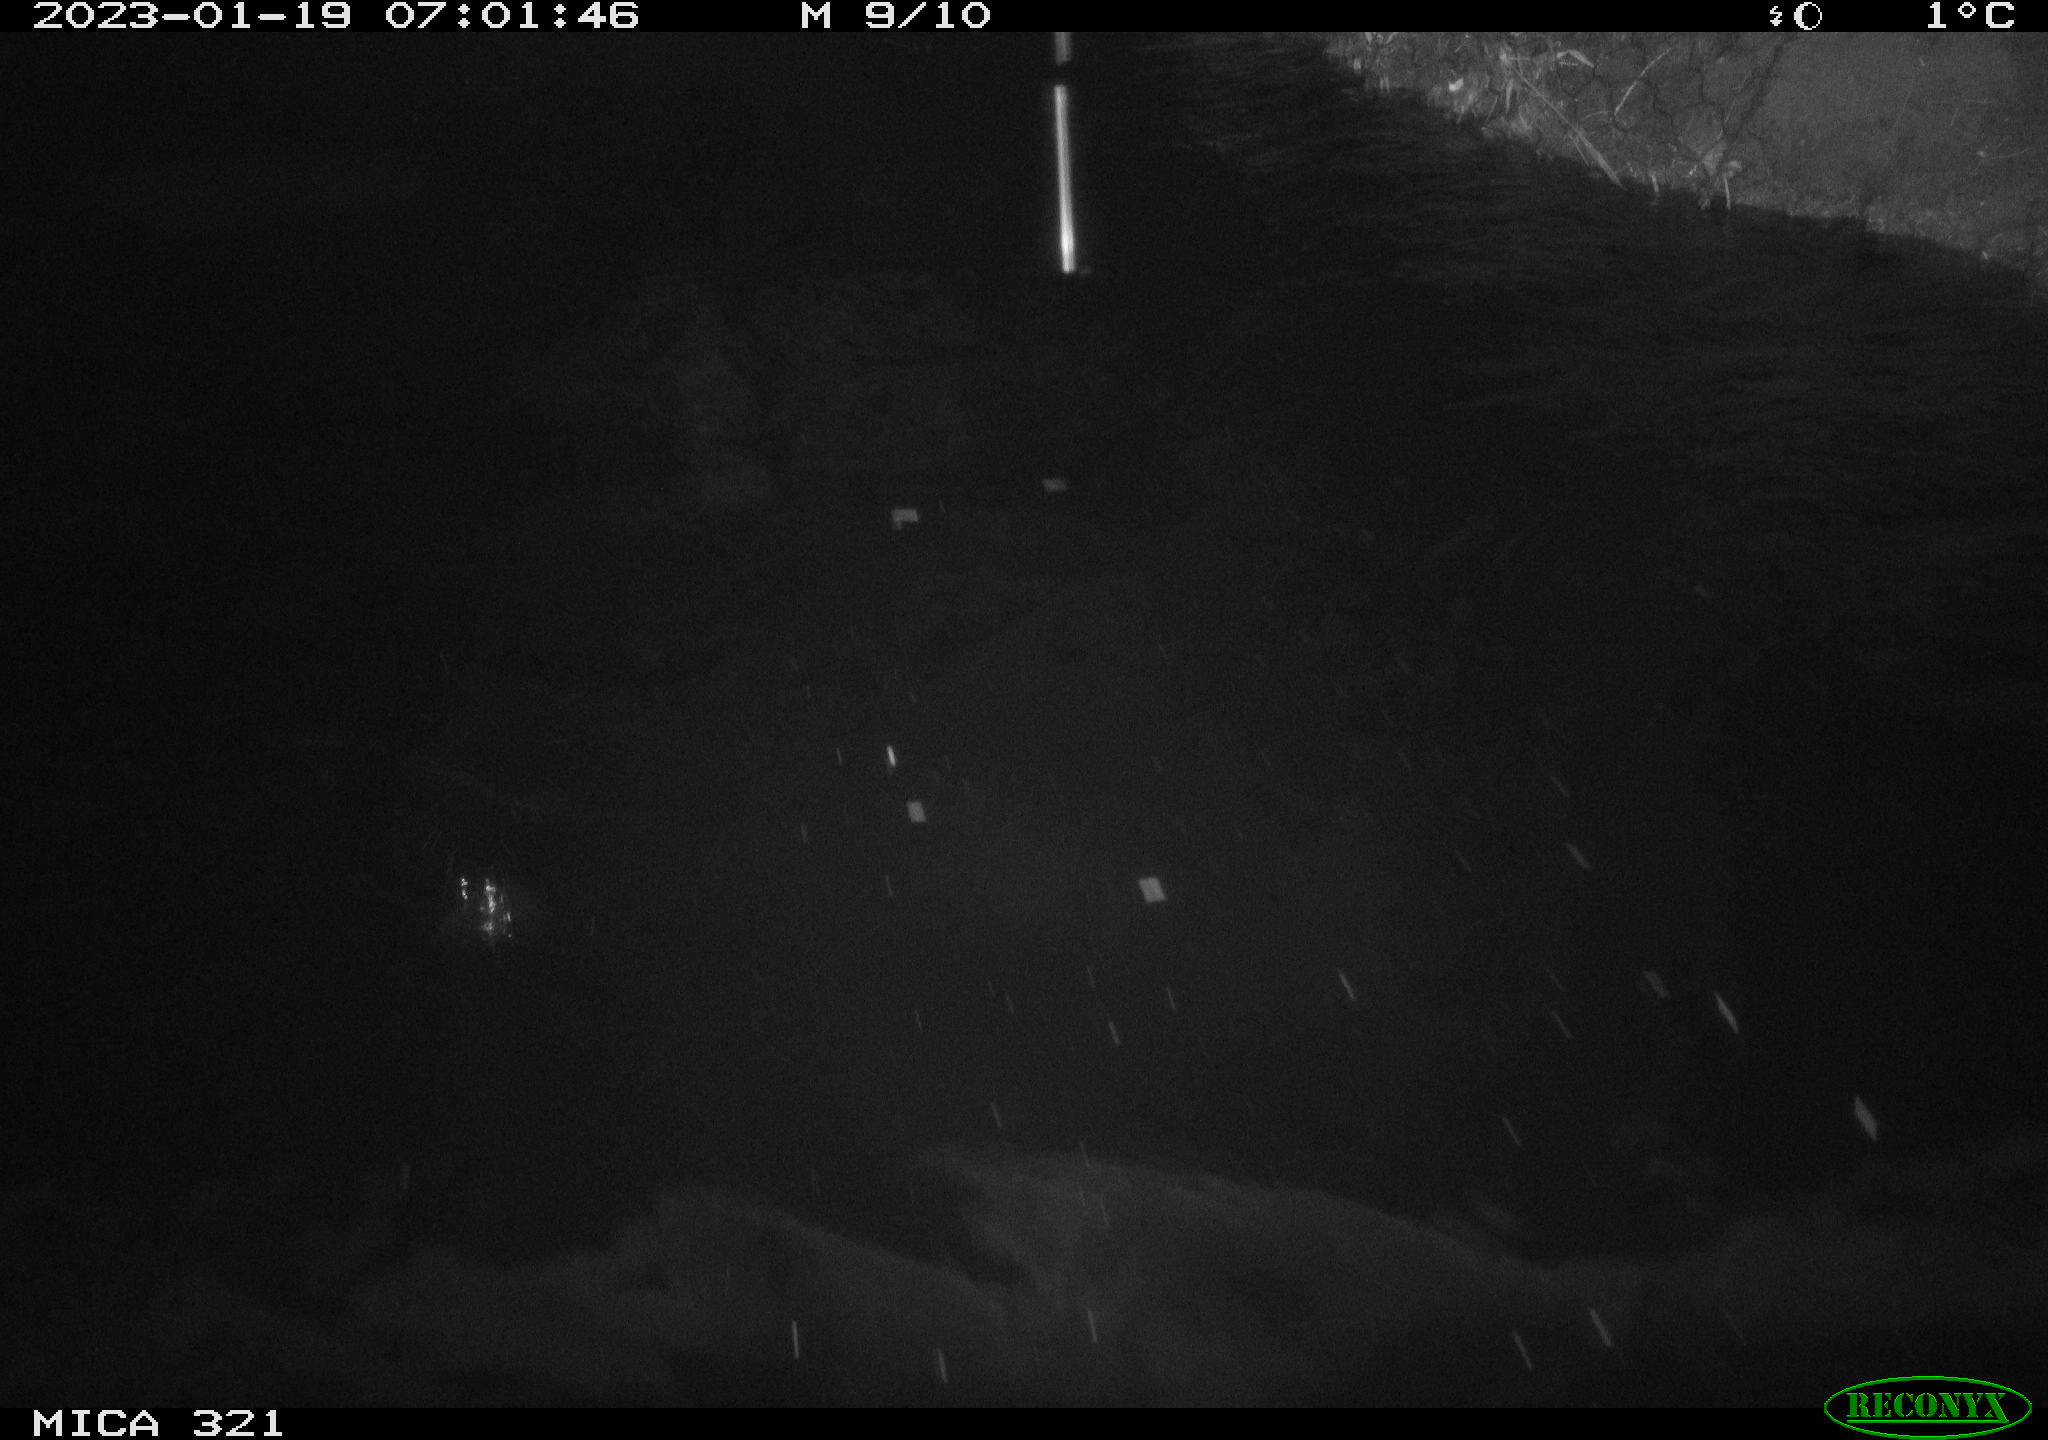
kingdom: Animalia
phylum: Chordata
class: Aves
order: Gruiformes
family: Rallidae
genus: Fulica
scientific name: Fulica atra
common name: Eurasian coot
